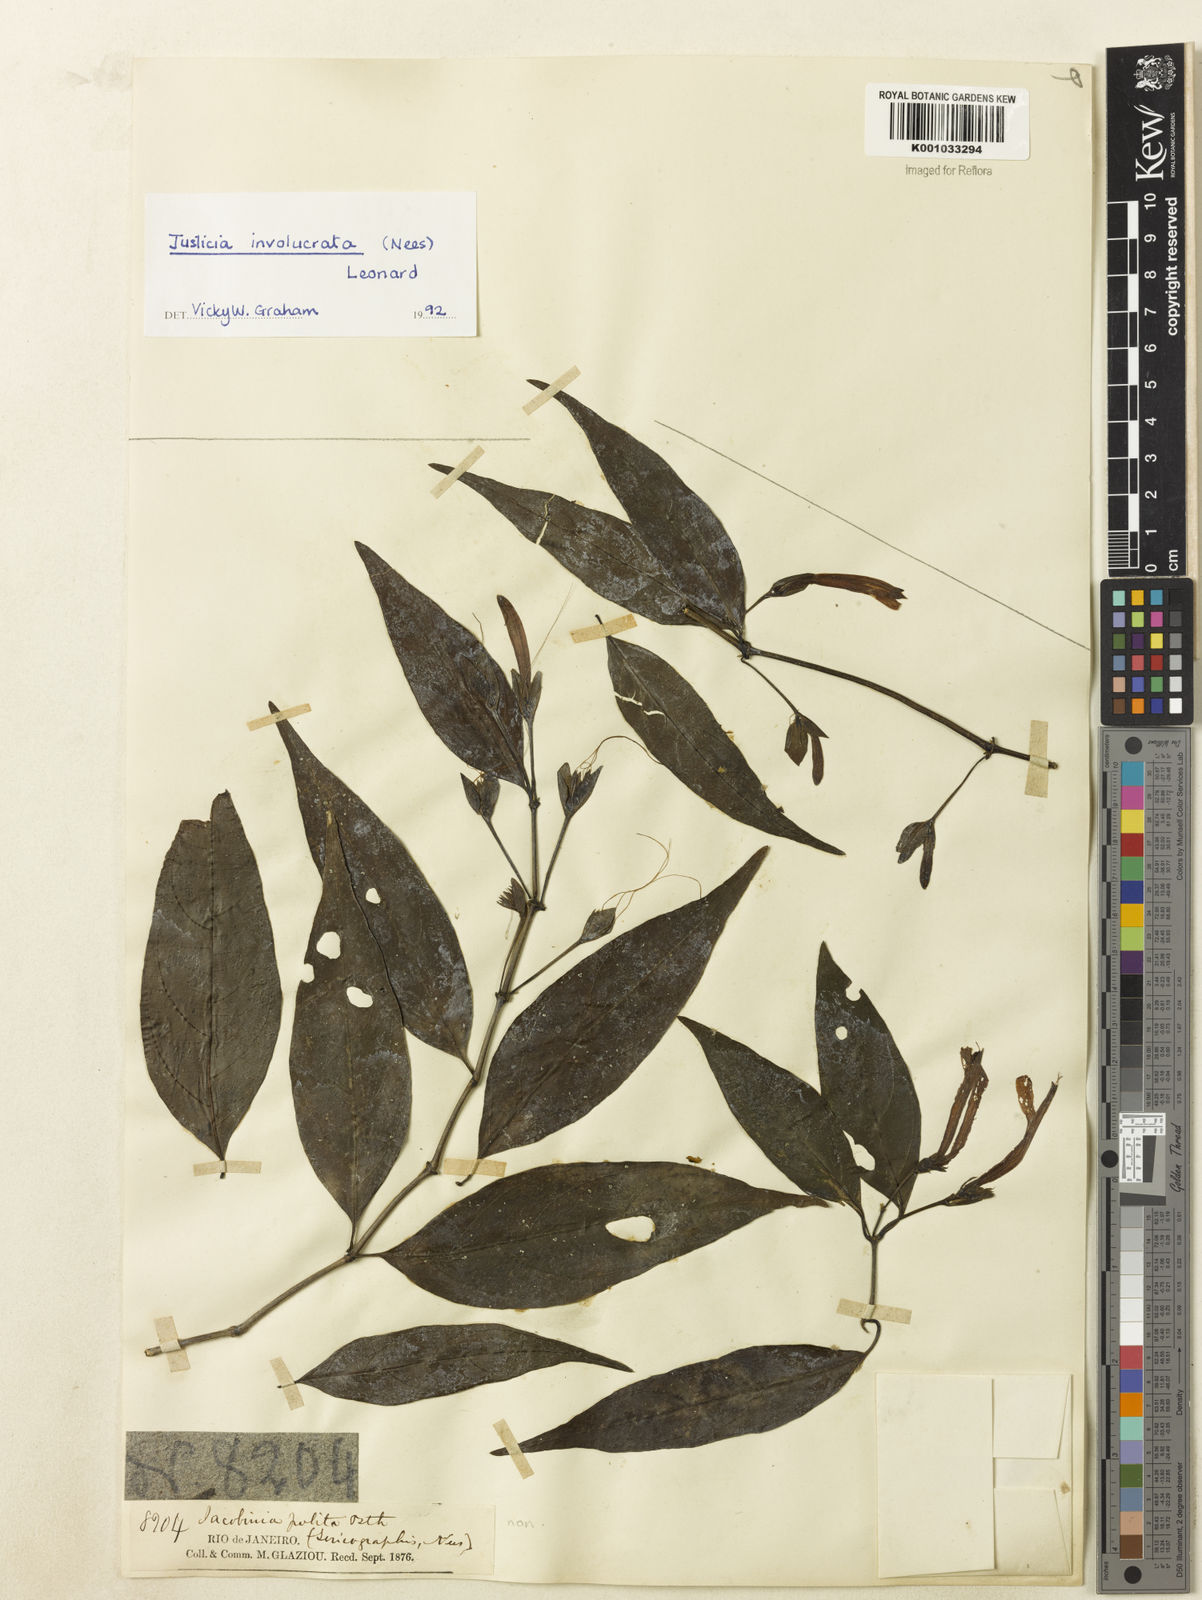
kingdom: Plantae
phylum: Tracheophyta
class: Magnoliopsida
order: Lamiales
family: Acanthaceae
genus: Justicia
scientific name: Justicia involucrata
